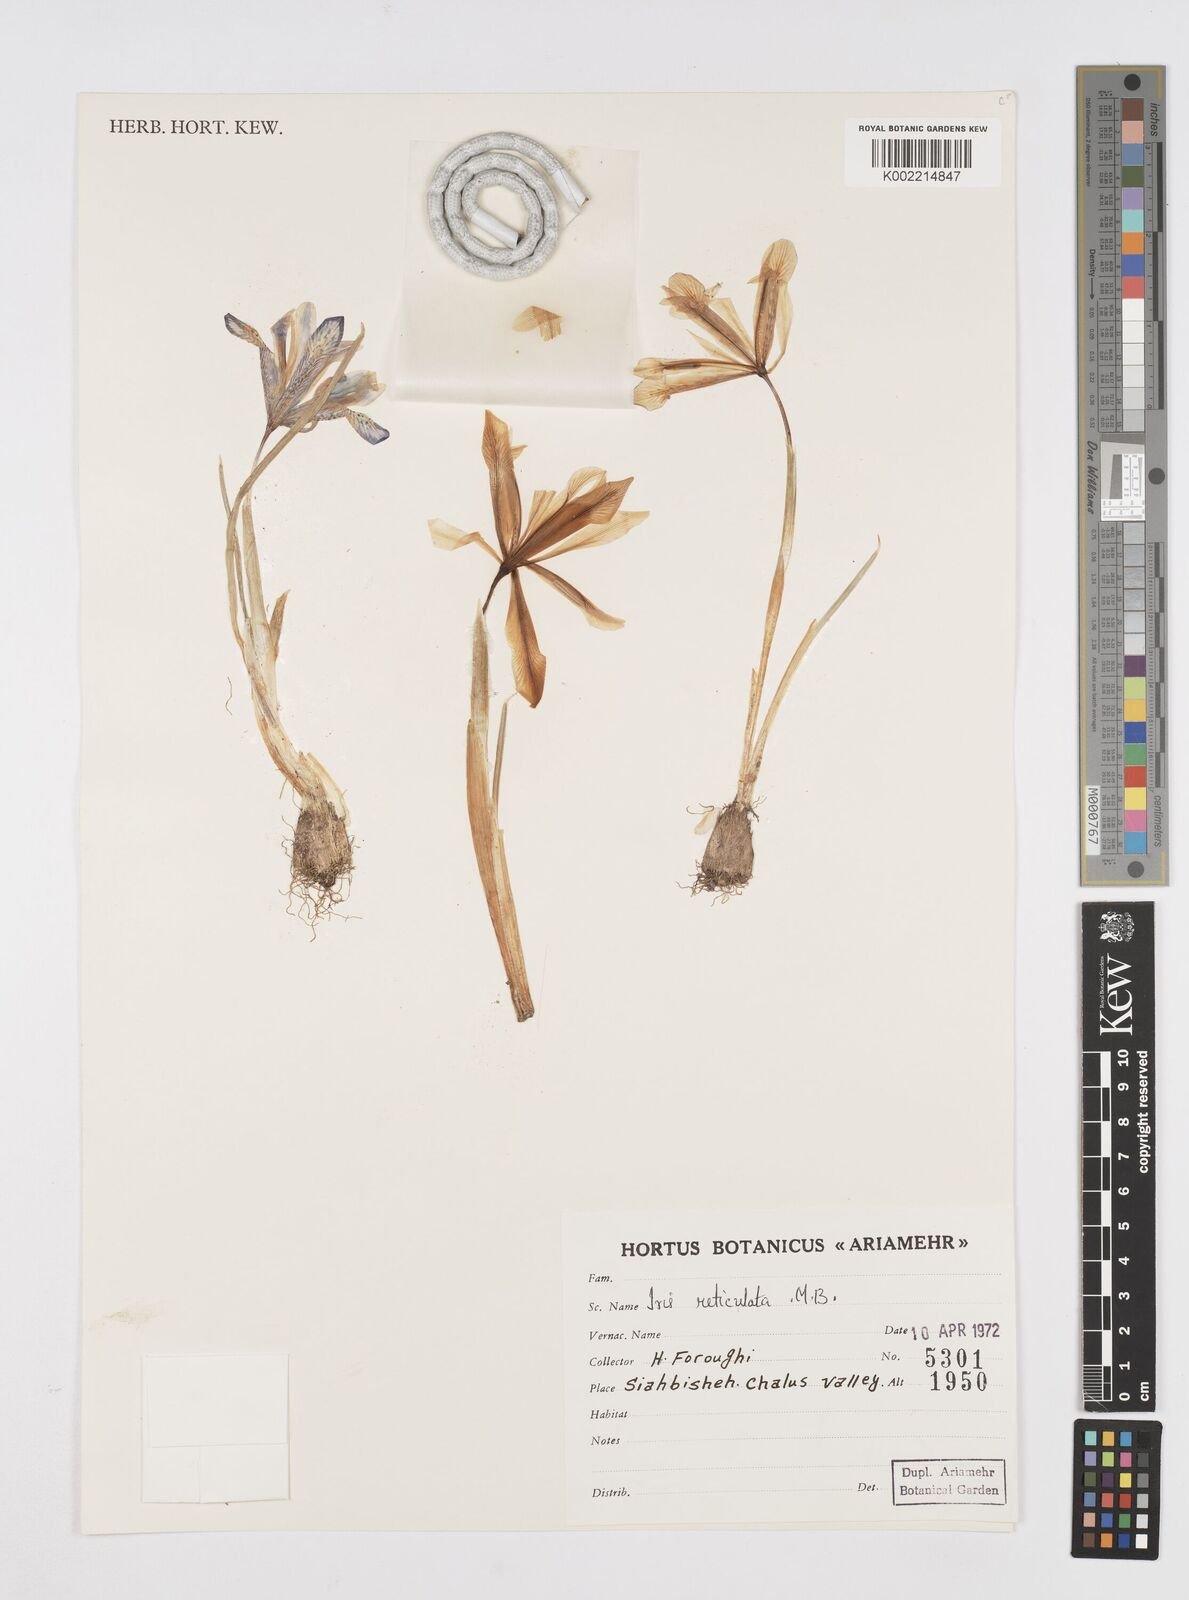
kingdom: Plantae
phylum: Tracheophyta
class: Liliopsida
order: Asparagales
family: Iridaceae
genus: Iris
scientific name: Iris reticulata
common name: Netted iris
